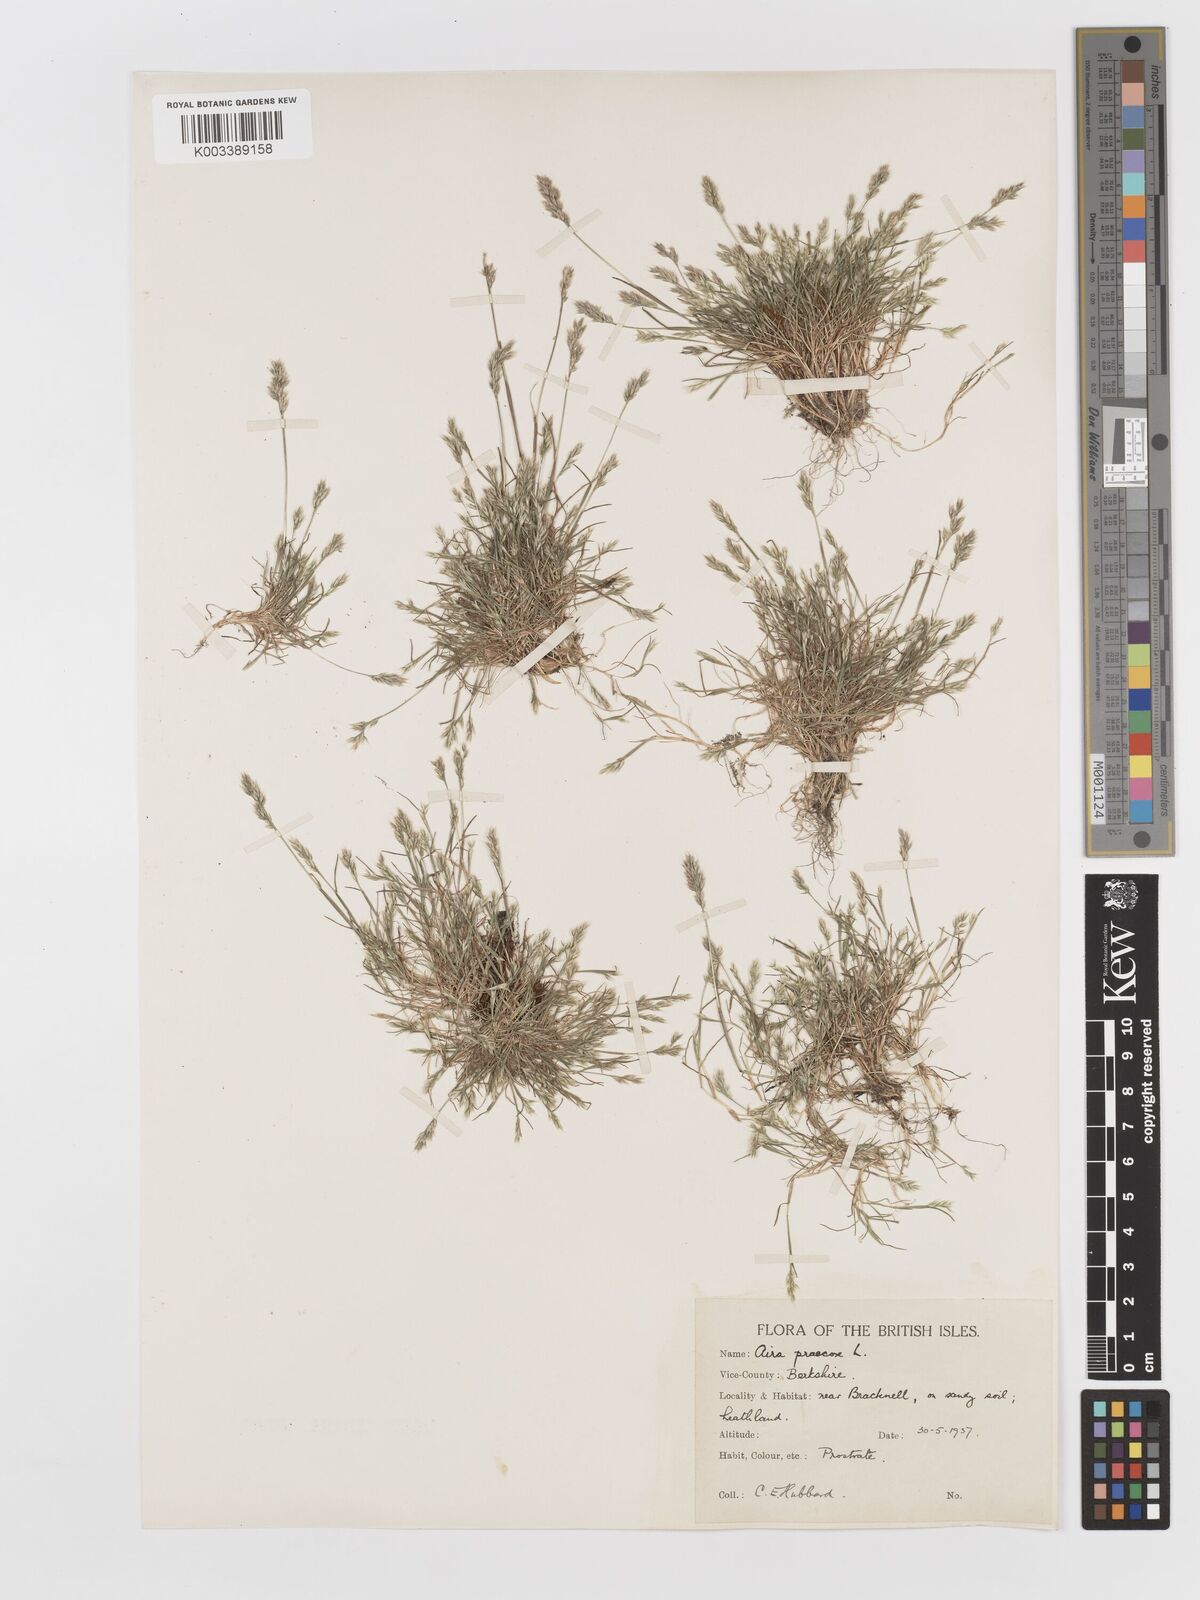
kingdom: Plantae
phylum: Tracheophyta
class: Liliopsida
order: Poales
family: Poaceae
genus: Aira
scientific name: Aira praecox
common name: Early hair-grass
